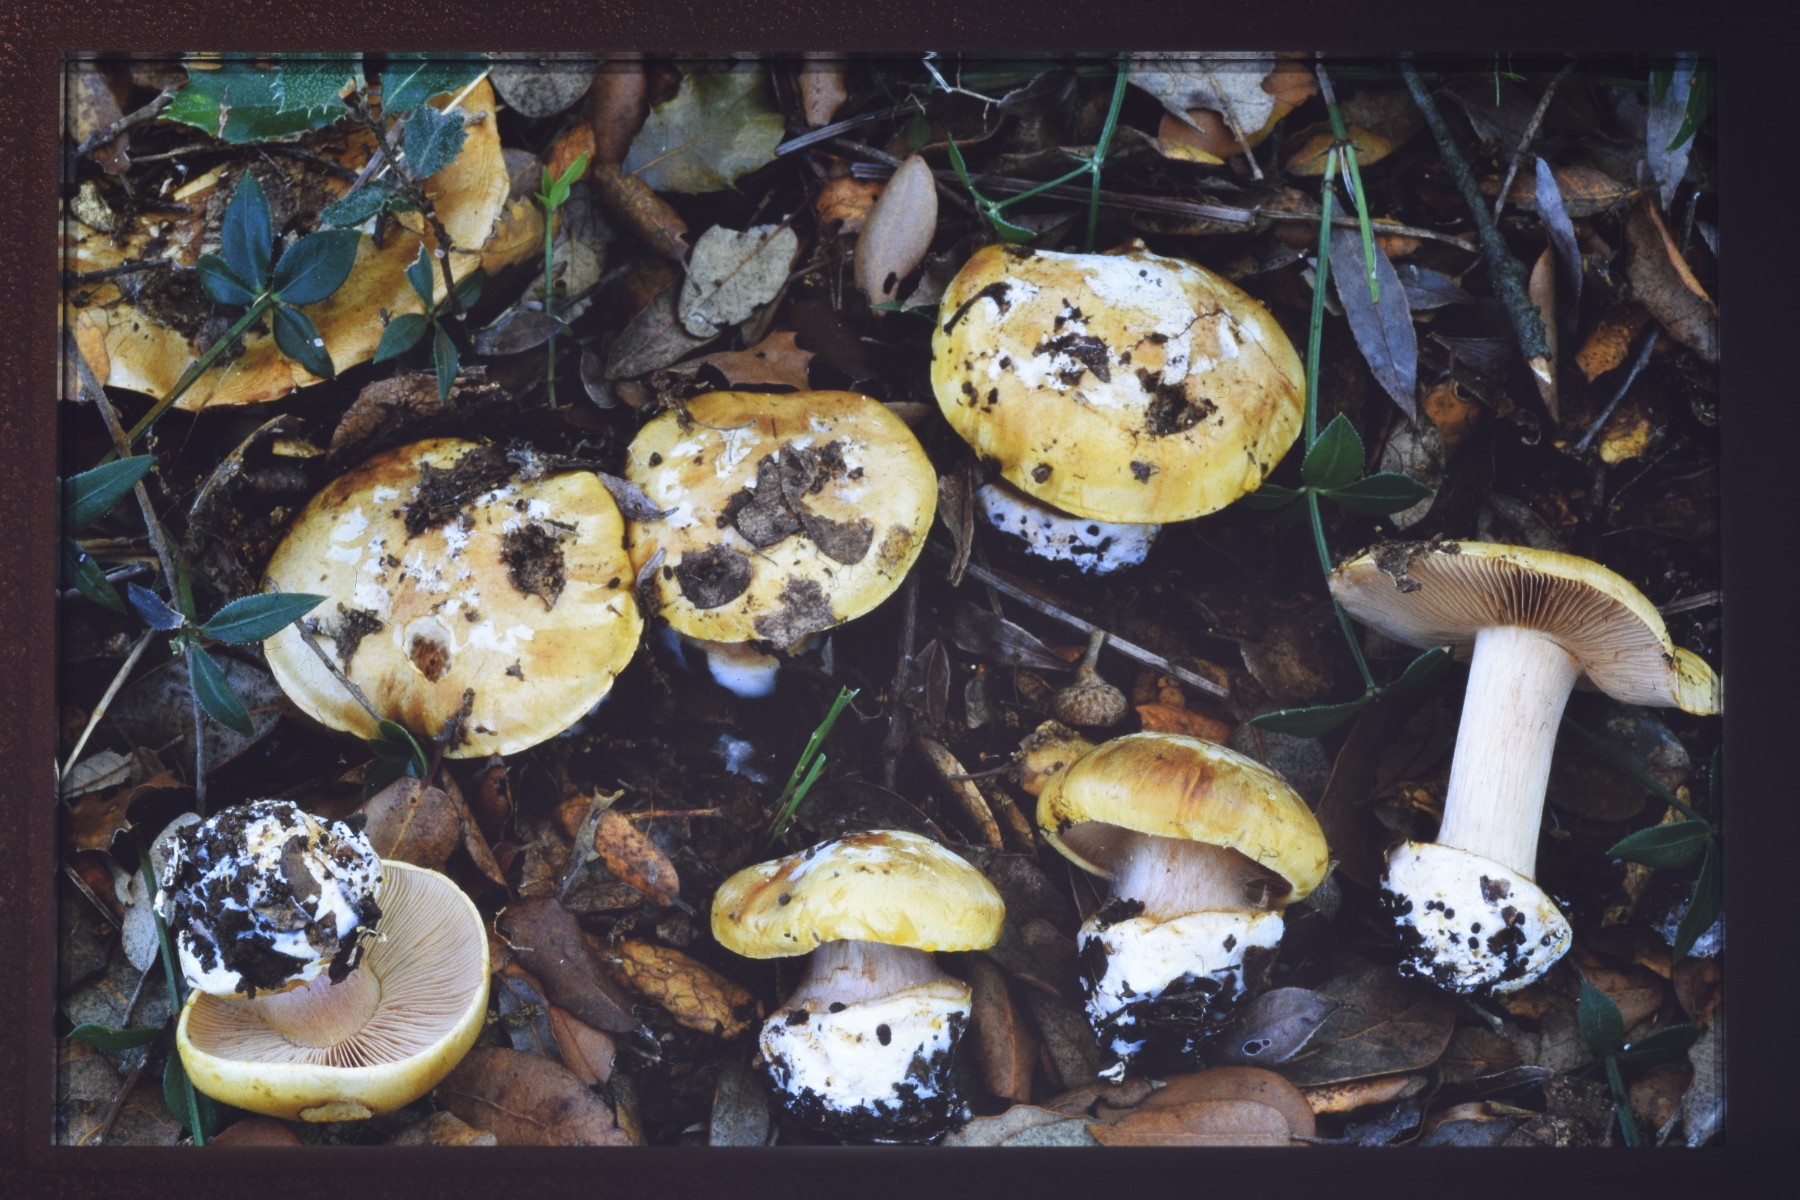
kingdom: Fungi
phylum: Basidiomycota
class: Agaricomycetes
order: Agaricales
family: Cortinariaceae
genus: Calonarius
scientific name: Calonarius natalis
